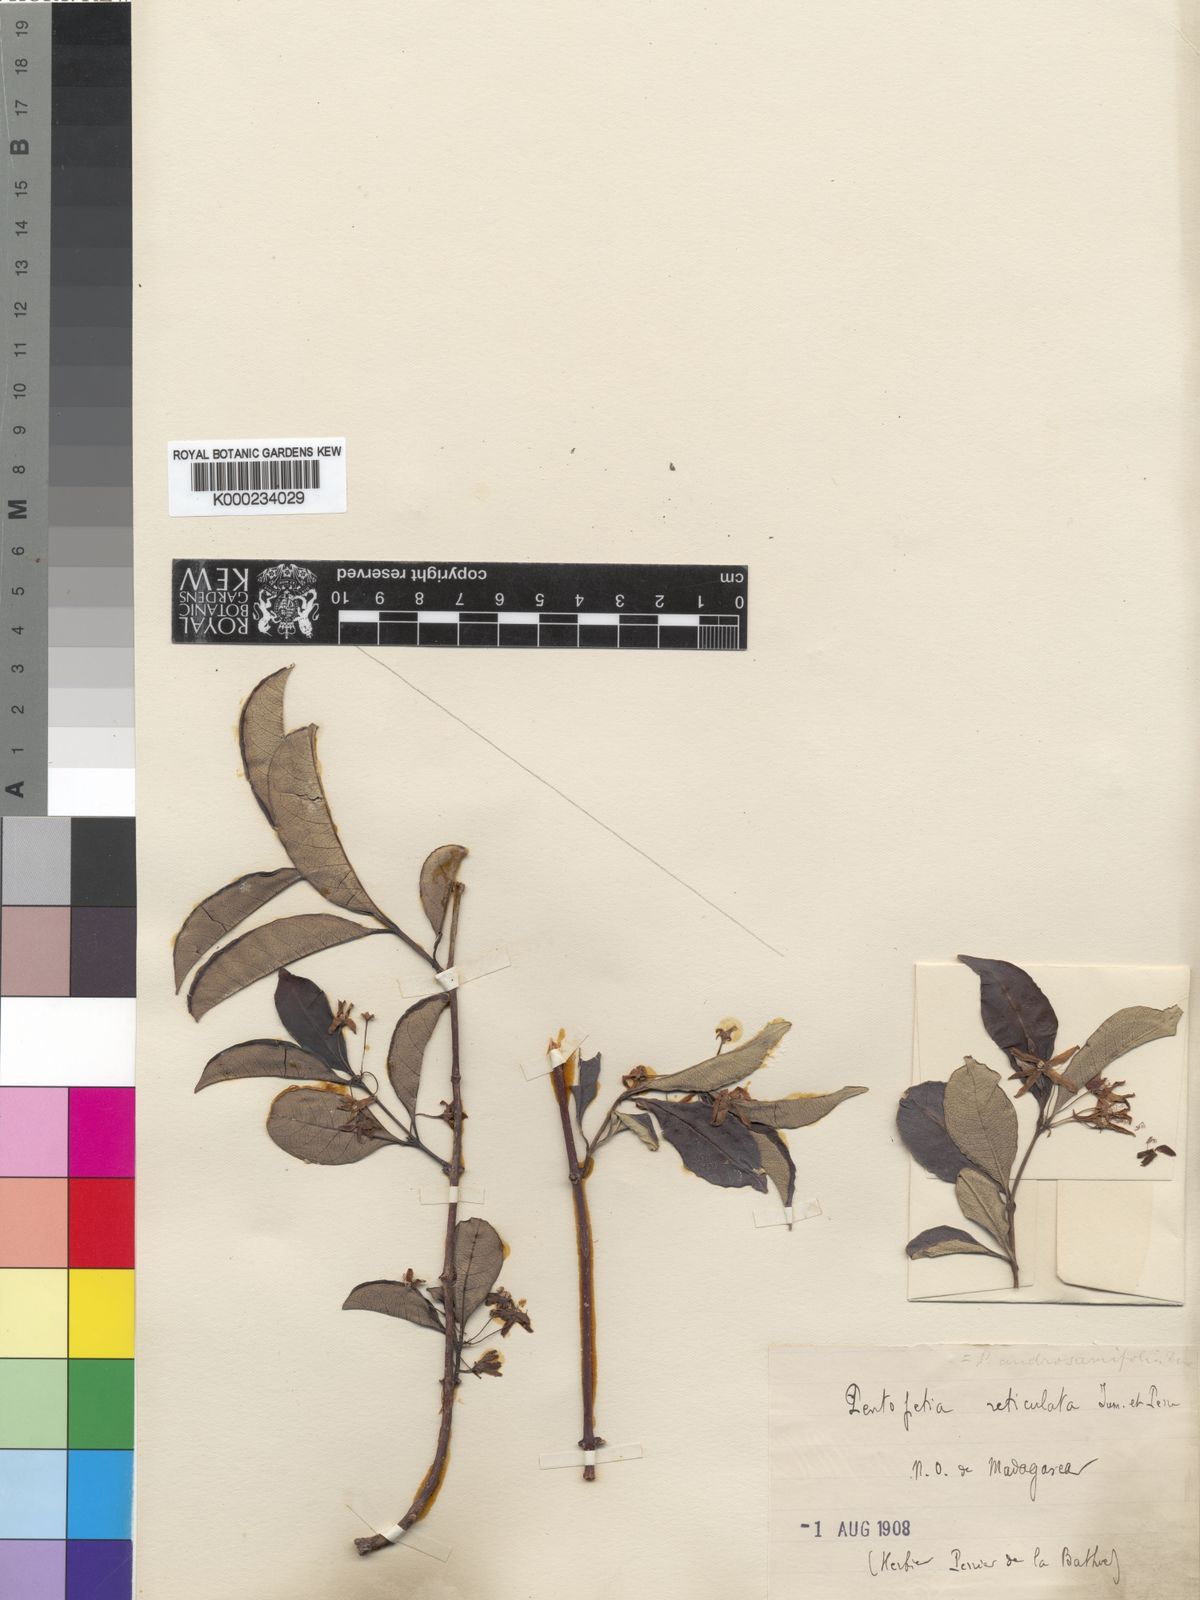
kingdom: Plantae
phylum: Tracheophyta
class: Magnoliopsida
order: Gentianales
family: Apocynaceae
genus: Pentopetia
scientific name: Pentopetia reticulata
